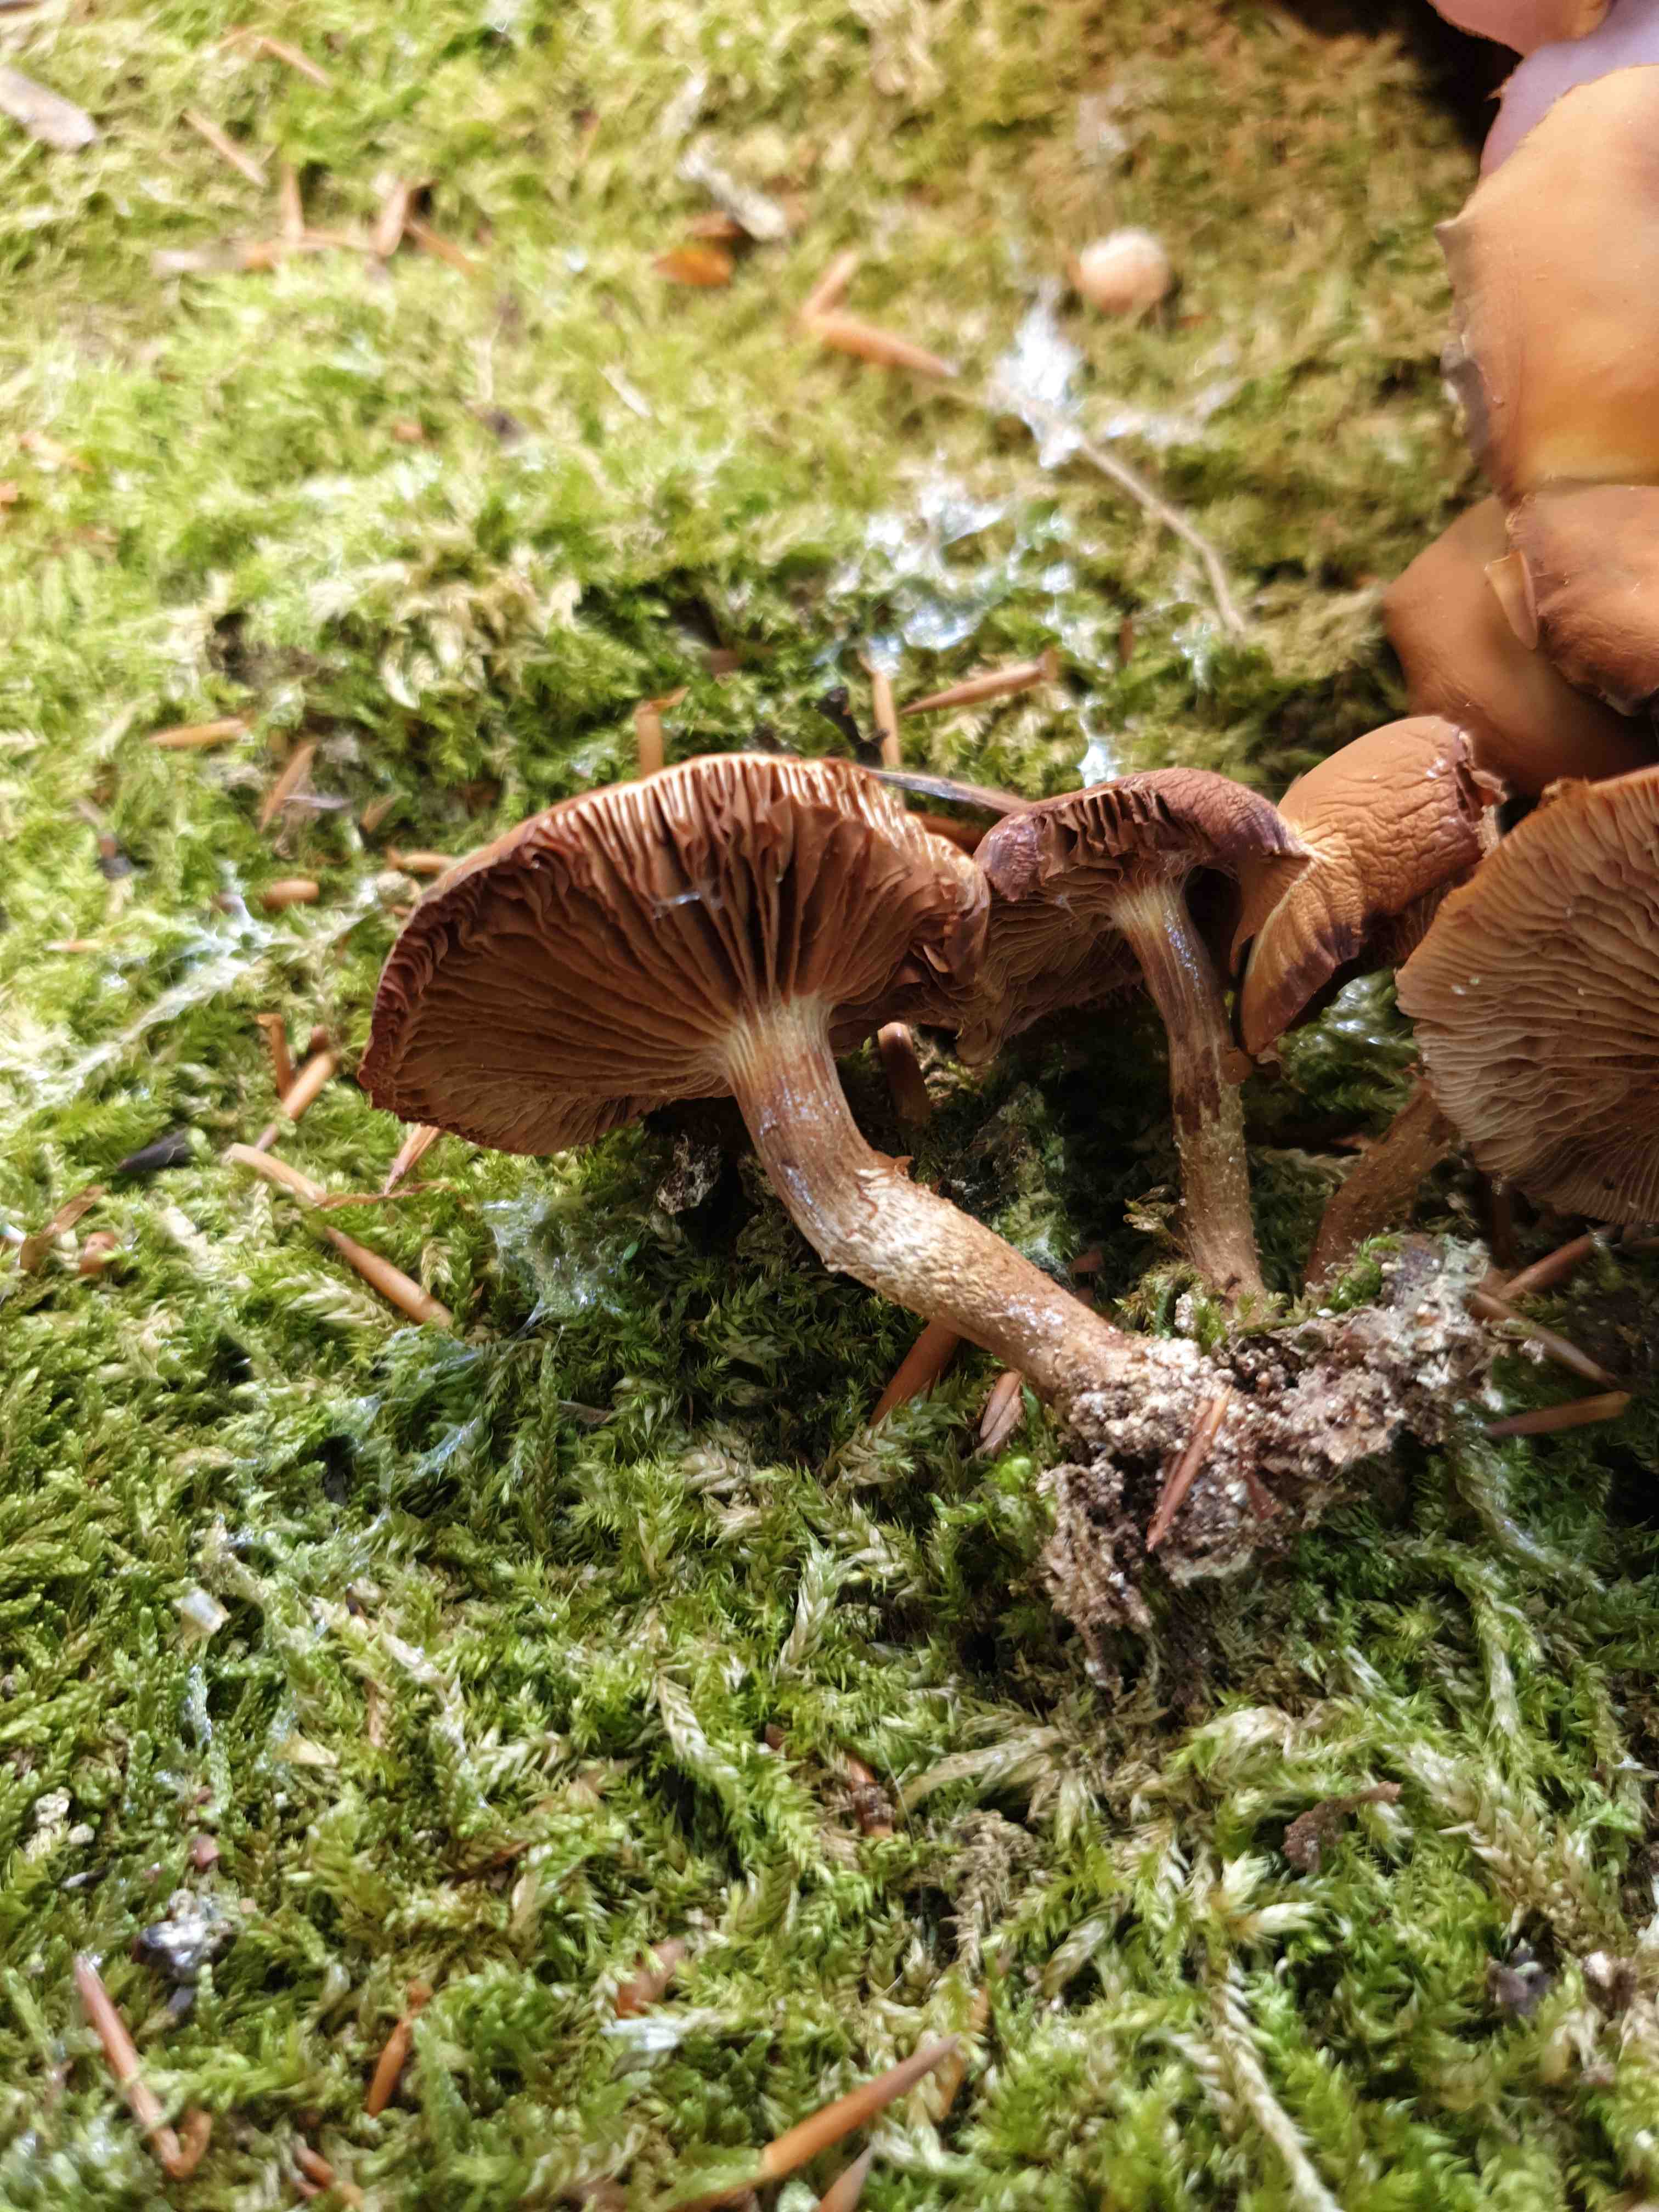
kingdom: Fungi
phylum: Basidiomycota
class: Agaricomycetes
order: Agaricales
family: Strophariaceae
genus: Kuehneromyces
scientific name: Kuehneromyces mutabilis
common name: foranderlig skælhat
